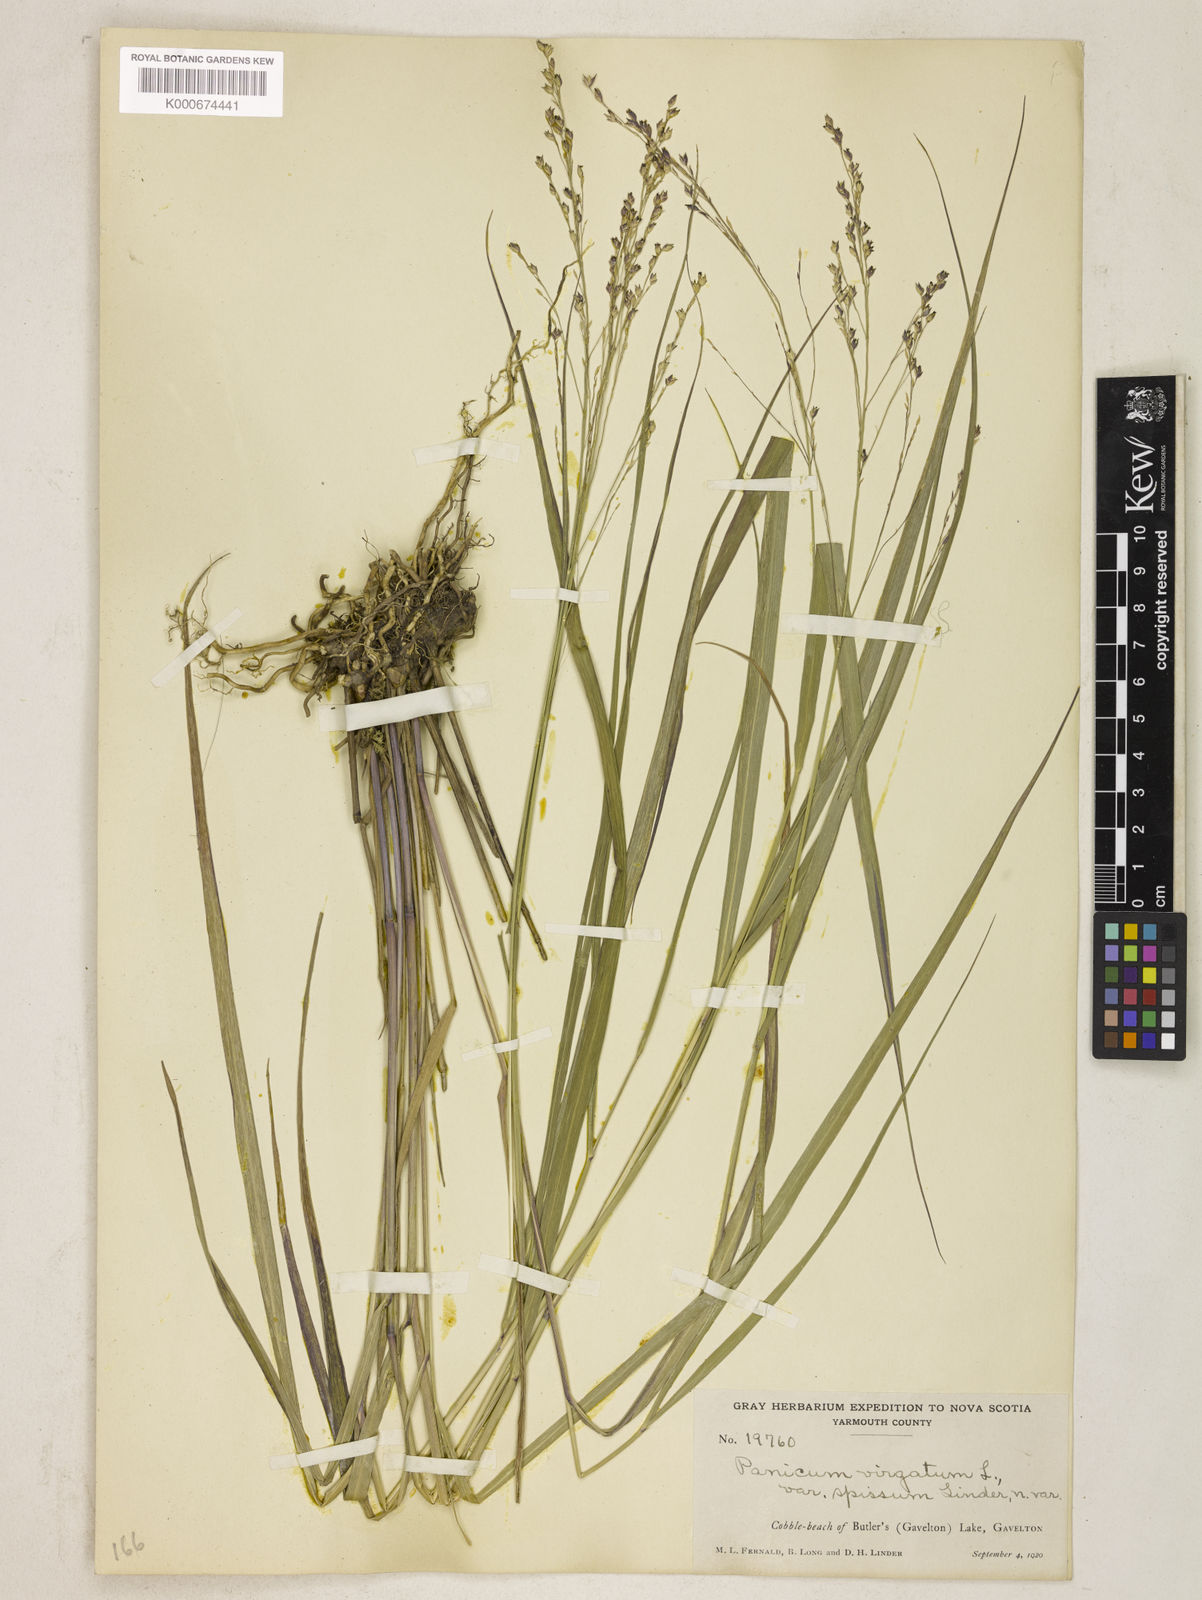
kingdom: Plantae
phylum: Tracheophyta
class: Liliopsida
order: Poales
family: Poaceae
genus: Panicum
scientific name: Panicum virgatum
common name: Switchgrass
